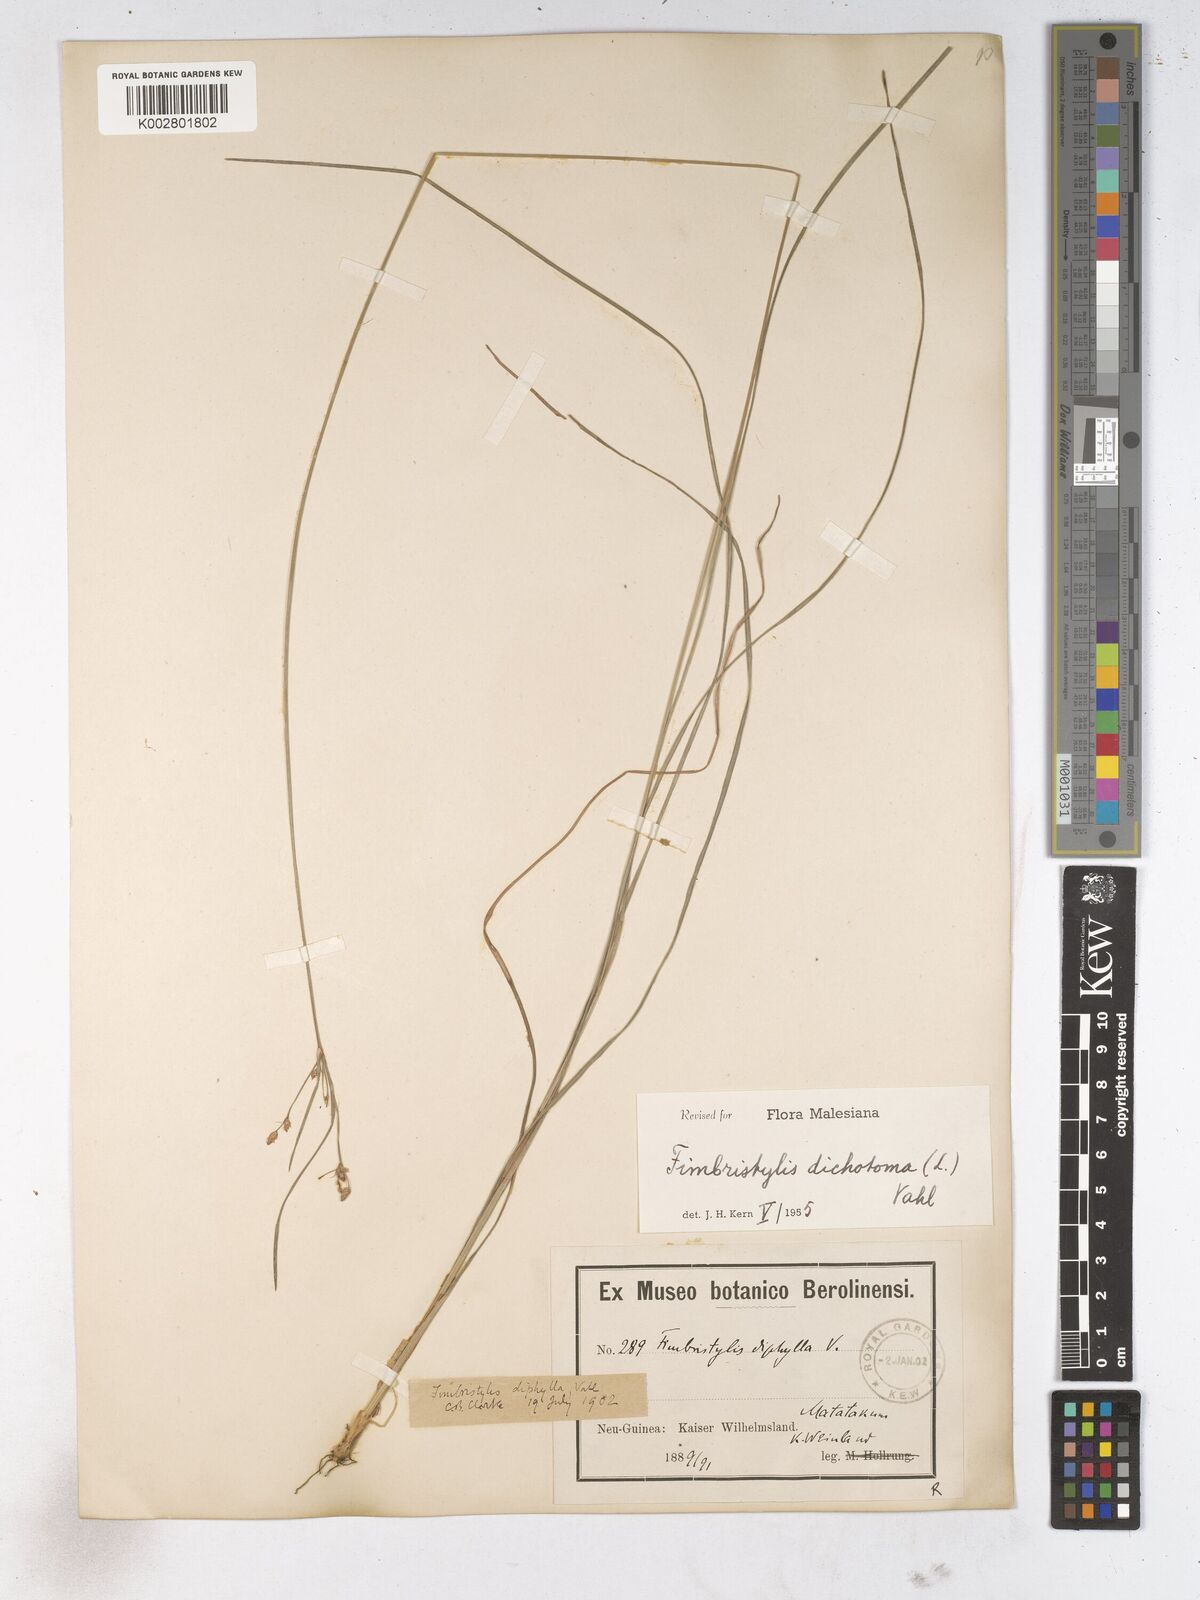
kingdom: Plantae
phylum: Tracheophyta
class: Liliopsida
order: Poales
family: Cyperaceae
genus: Fimbristylis
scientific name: Fimbristylis dichotoma
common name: Forked fimbry
